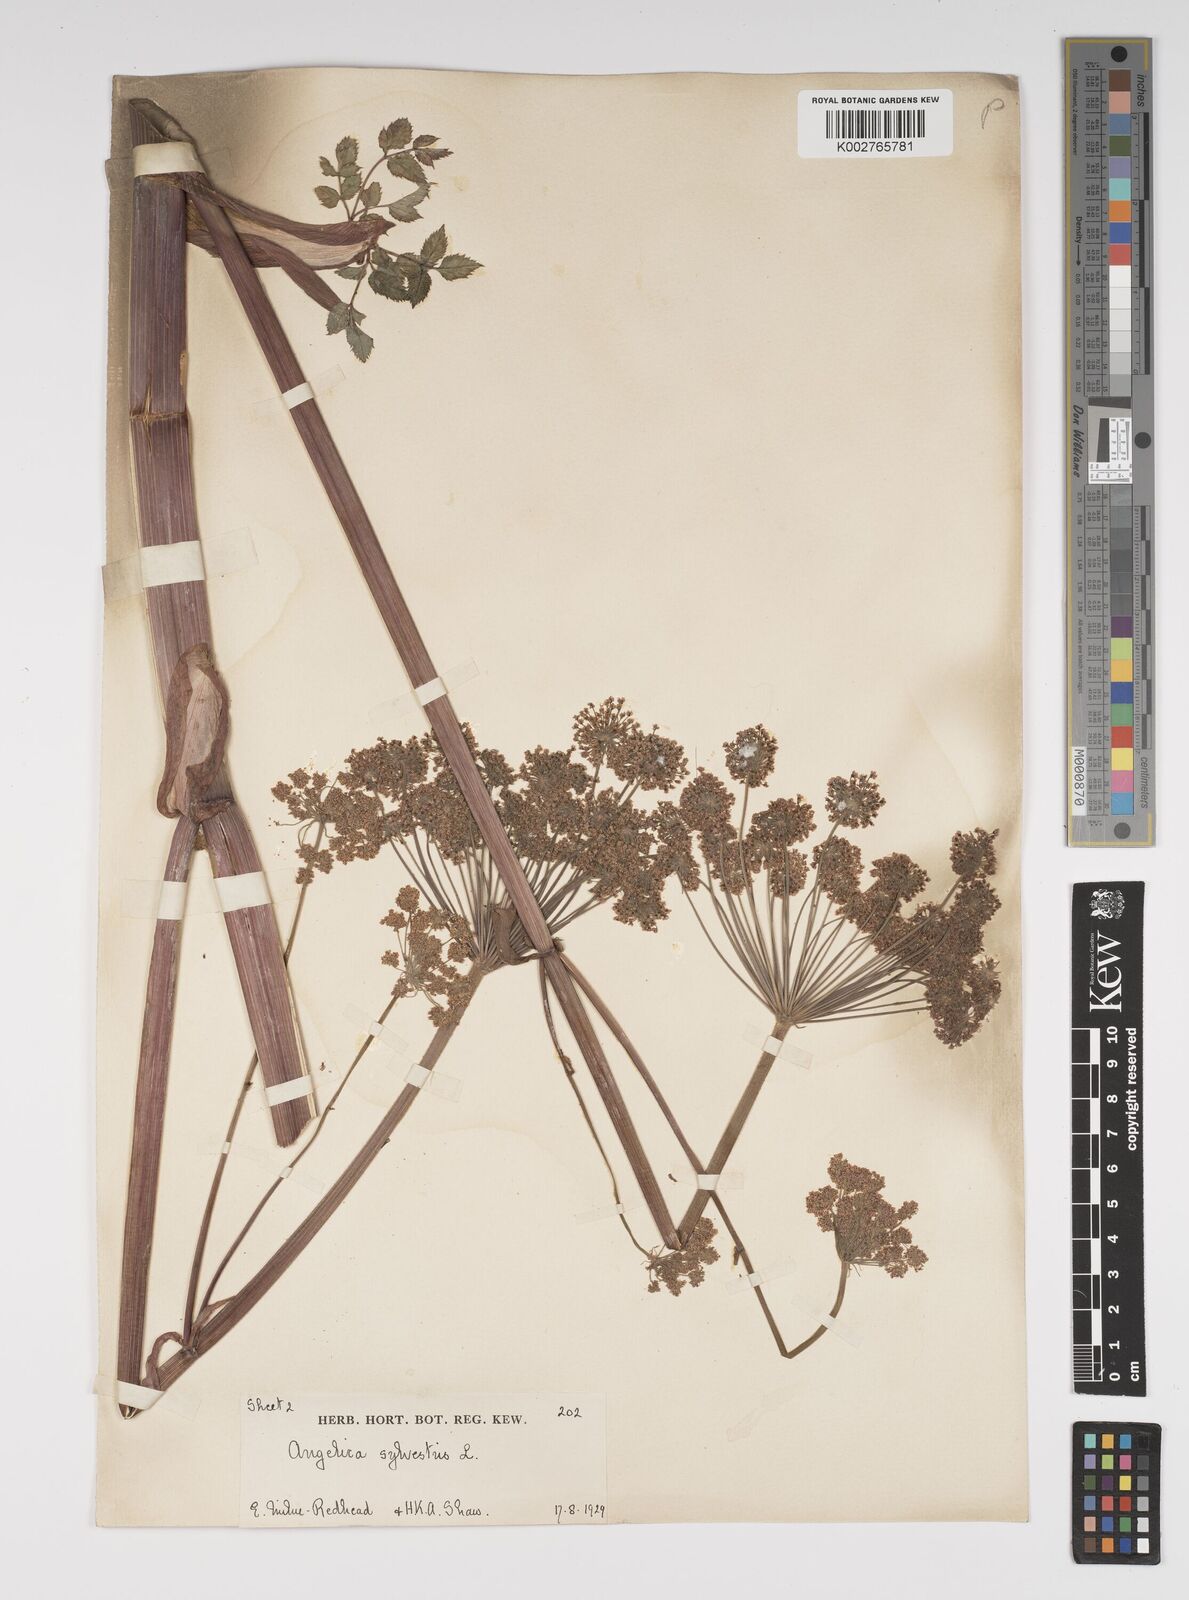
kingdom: Plantae
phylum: Tracheophyta
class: Magnoliopsida
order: Apiales
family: Apiaceae
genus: Angelica
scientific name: Angelica sylvestris
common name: Wild angelica
